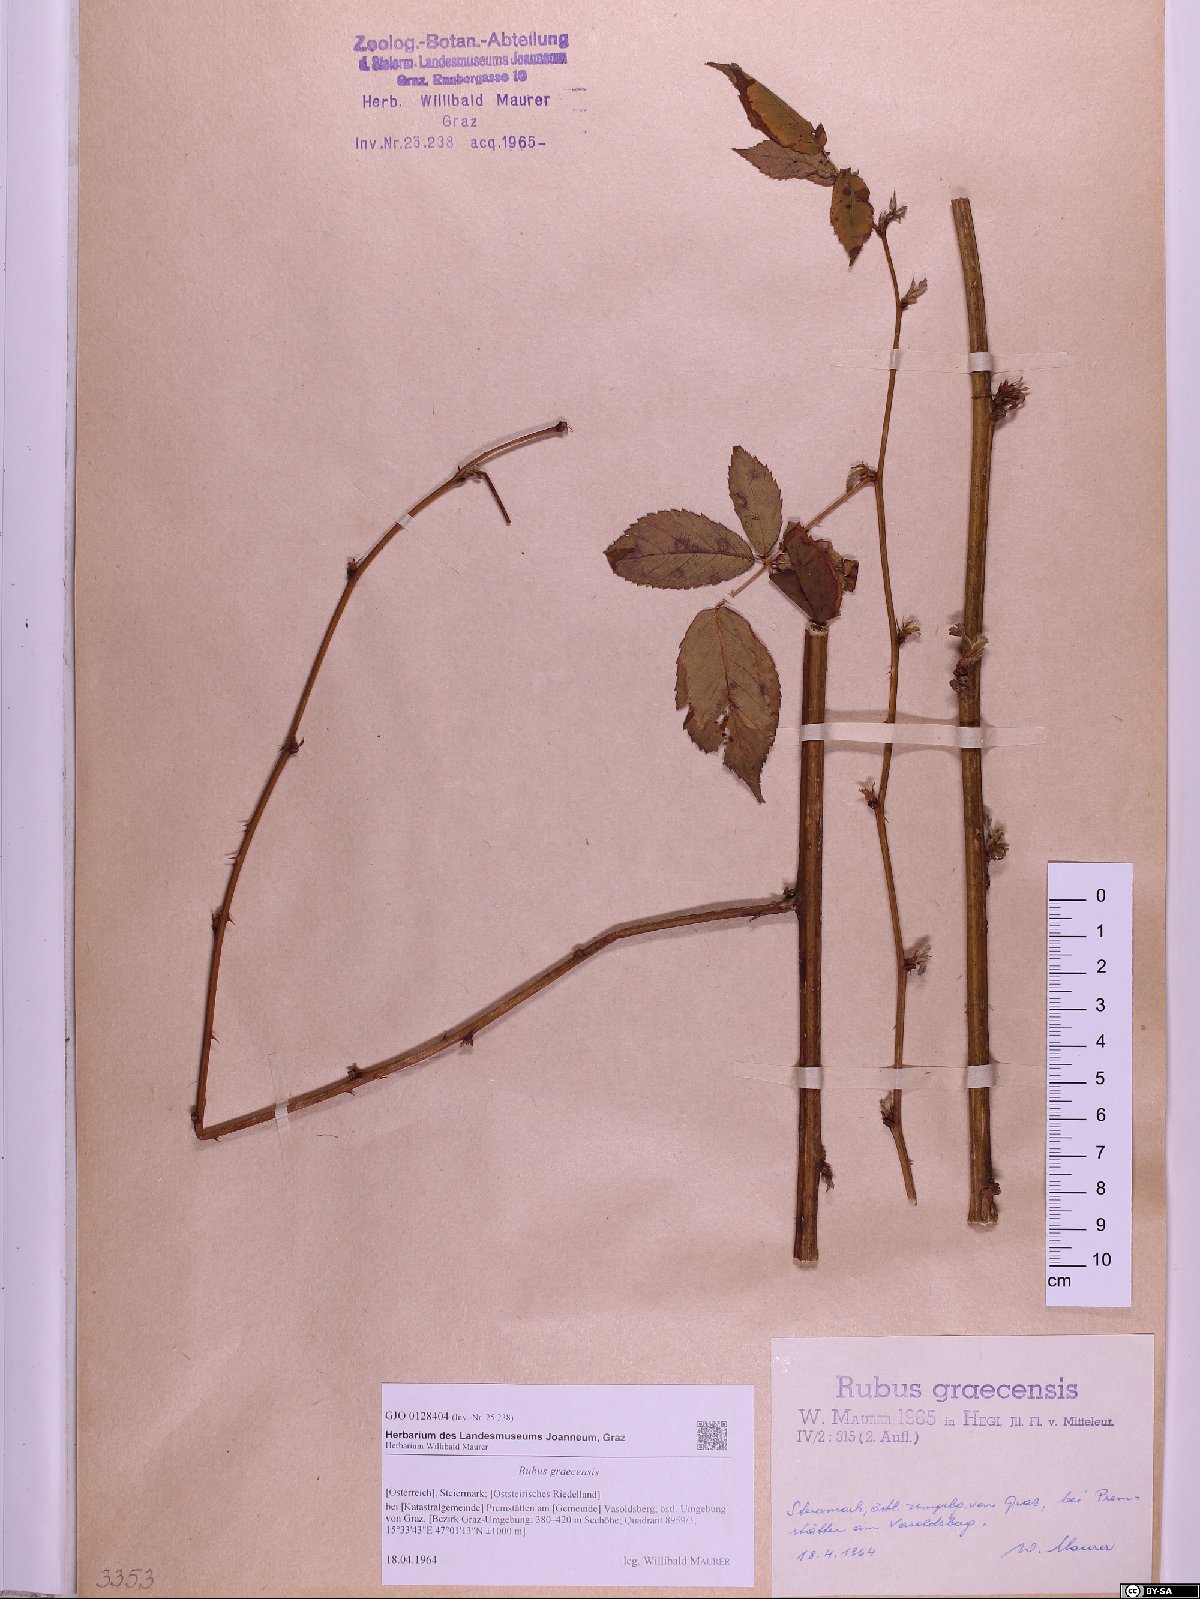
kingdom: Plantae
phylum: Tracheophyta
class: Magnoliopsida
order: Rosales
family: Rosaceae
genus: Rubus
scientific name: Rubus graecensis
